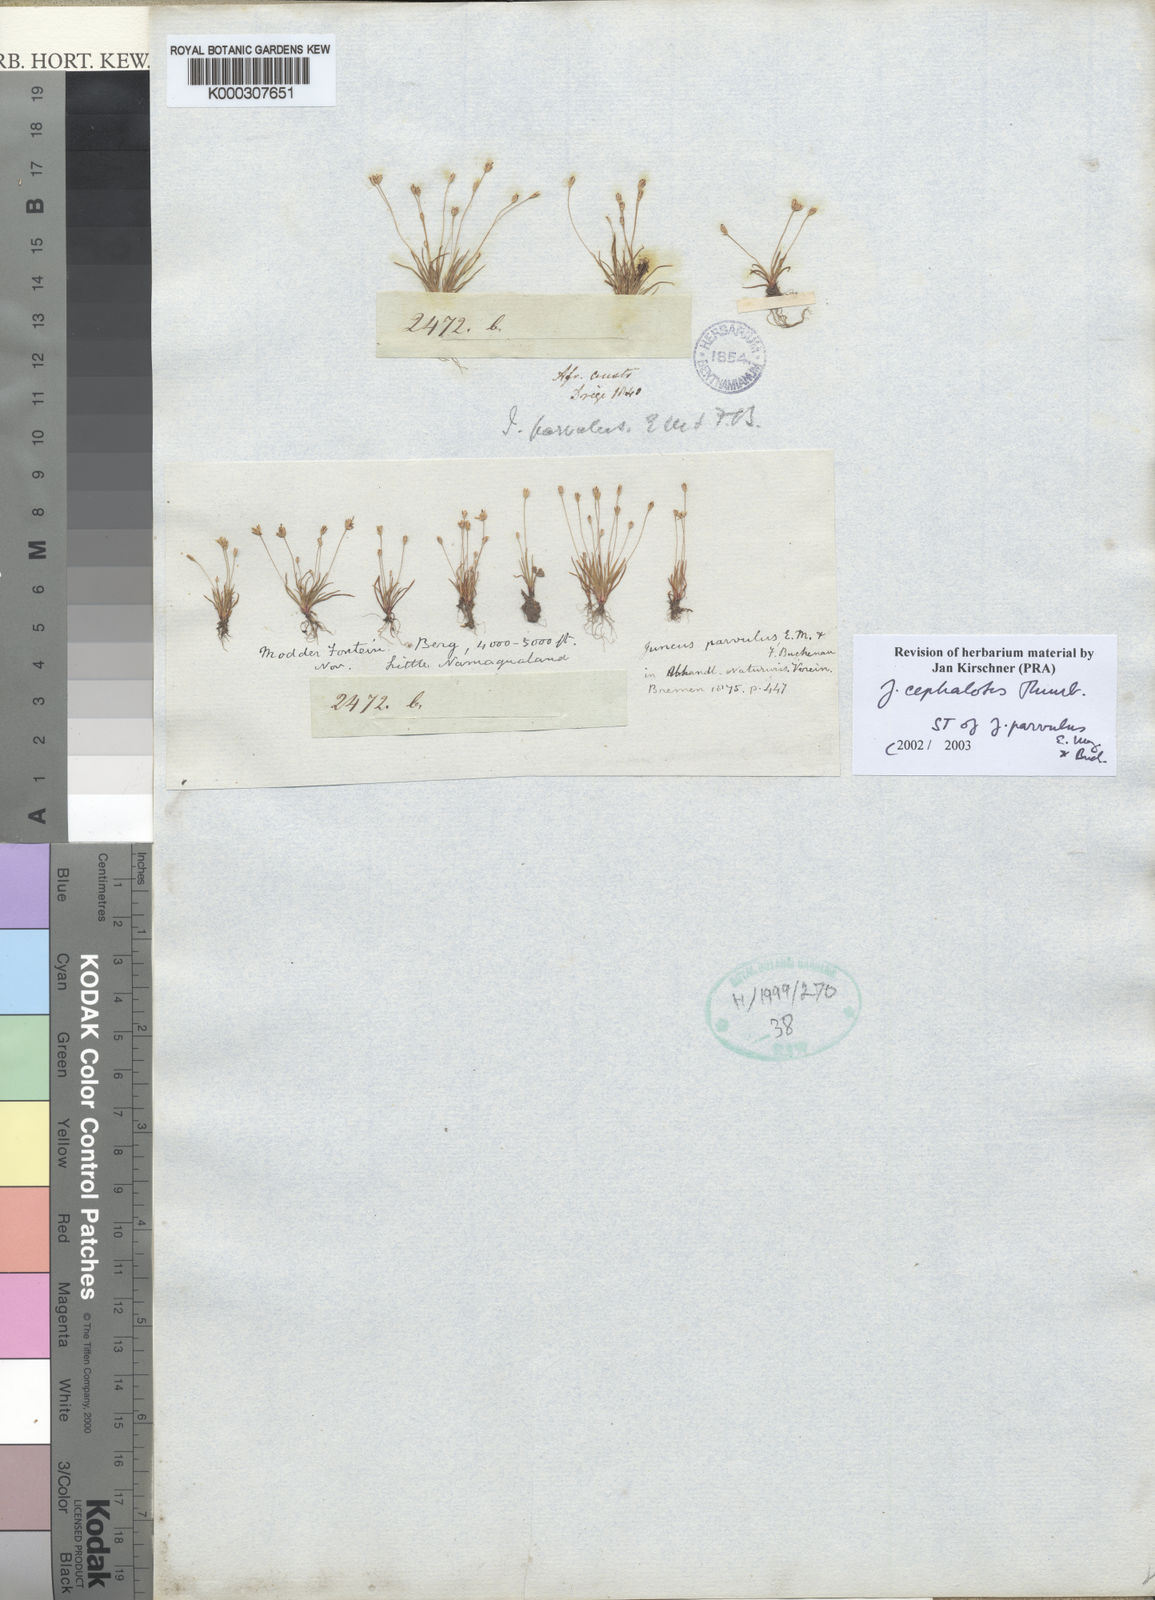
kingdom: Plantae
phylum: Tracheophyta
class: Liliopsida
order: Poales
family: Juncaceae
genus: Juncus
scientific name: Juncus
